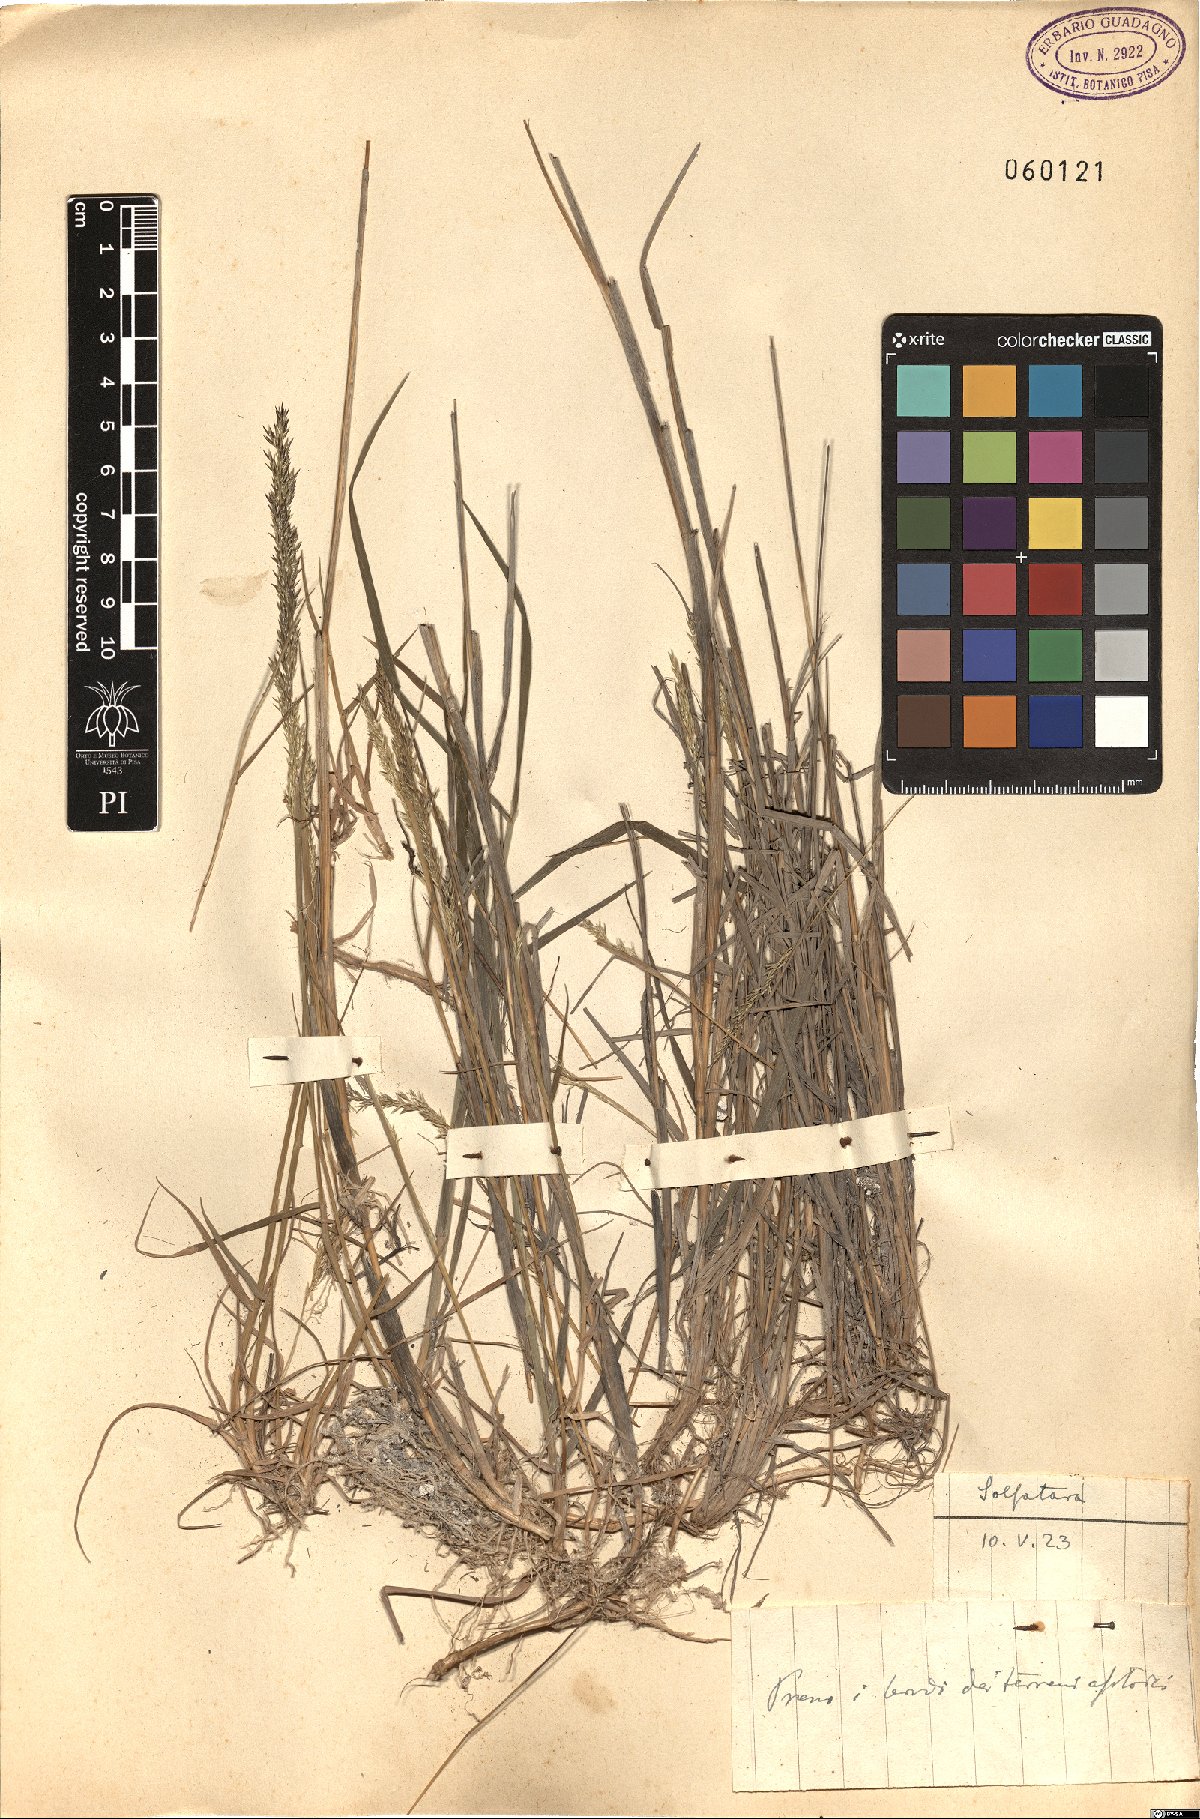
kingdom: Plantae
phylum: Tracheophyta
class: Liliopsida
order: Poales
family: Poaceae
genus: Agrostis
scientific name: Agrostis
